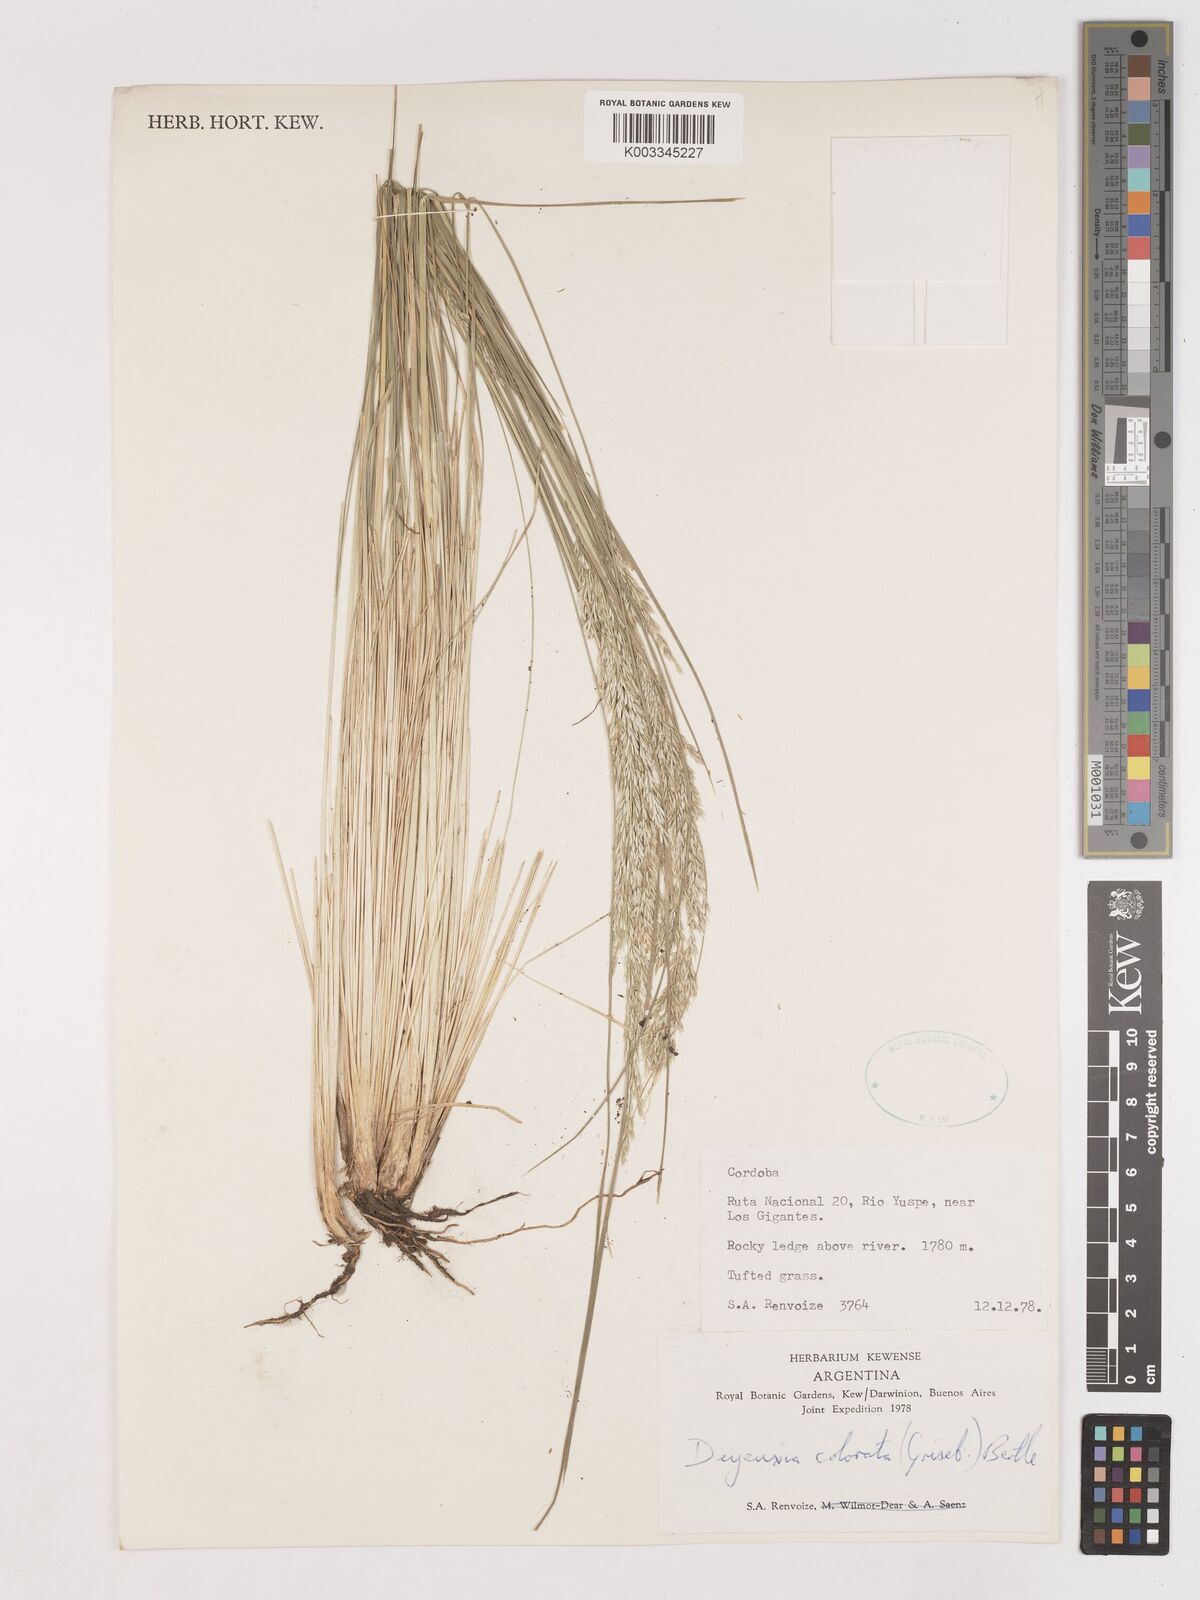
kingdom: Plantae
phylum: Tracheophyta
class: Liliopsida
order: Poales
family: Poaceae
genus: Calamagrostis
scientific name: Calamagrostis borii
